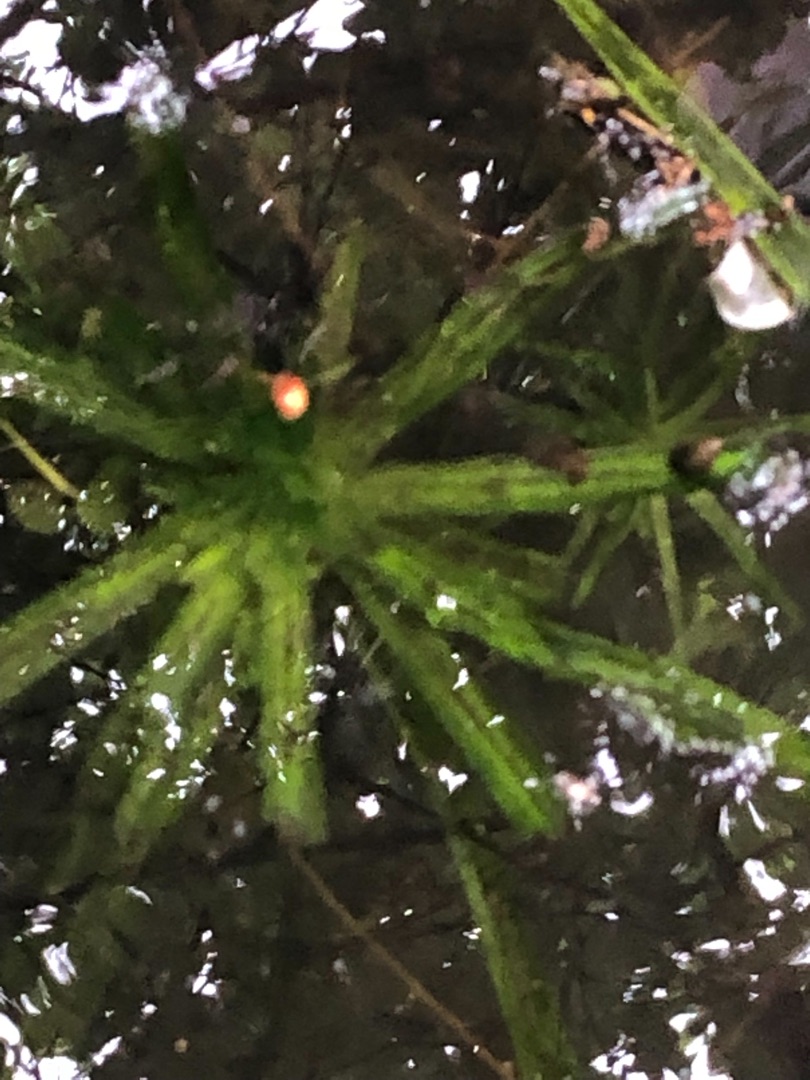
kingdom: Plantae
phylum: Tracheophyta
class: Liliopsida
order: Alismatales
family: Hydrocharitaceae
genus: Stratiotes
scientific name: Stratiotes aloides
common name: Krebseklo
